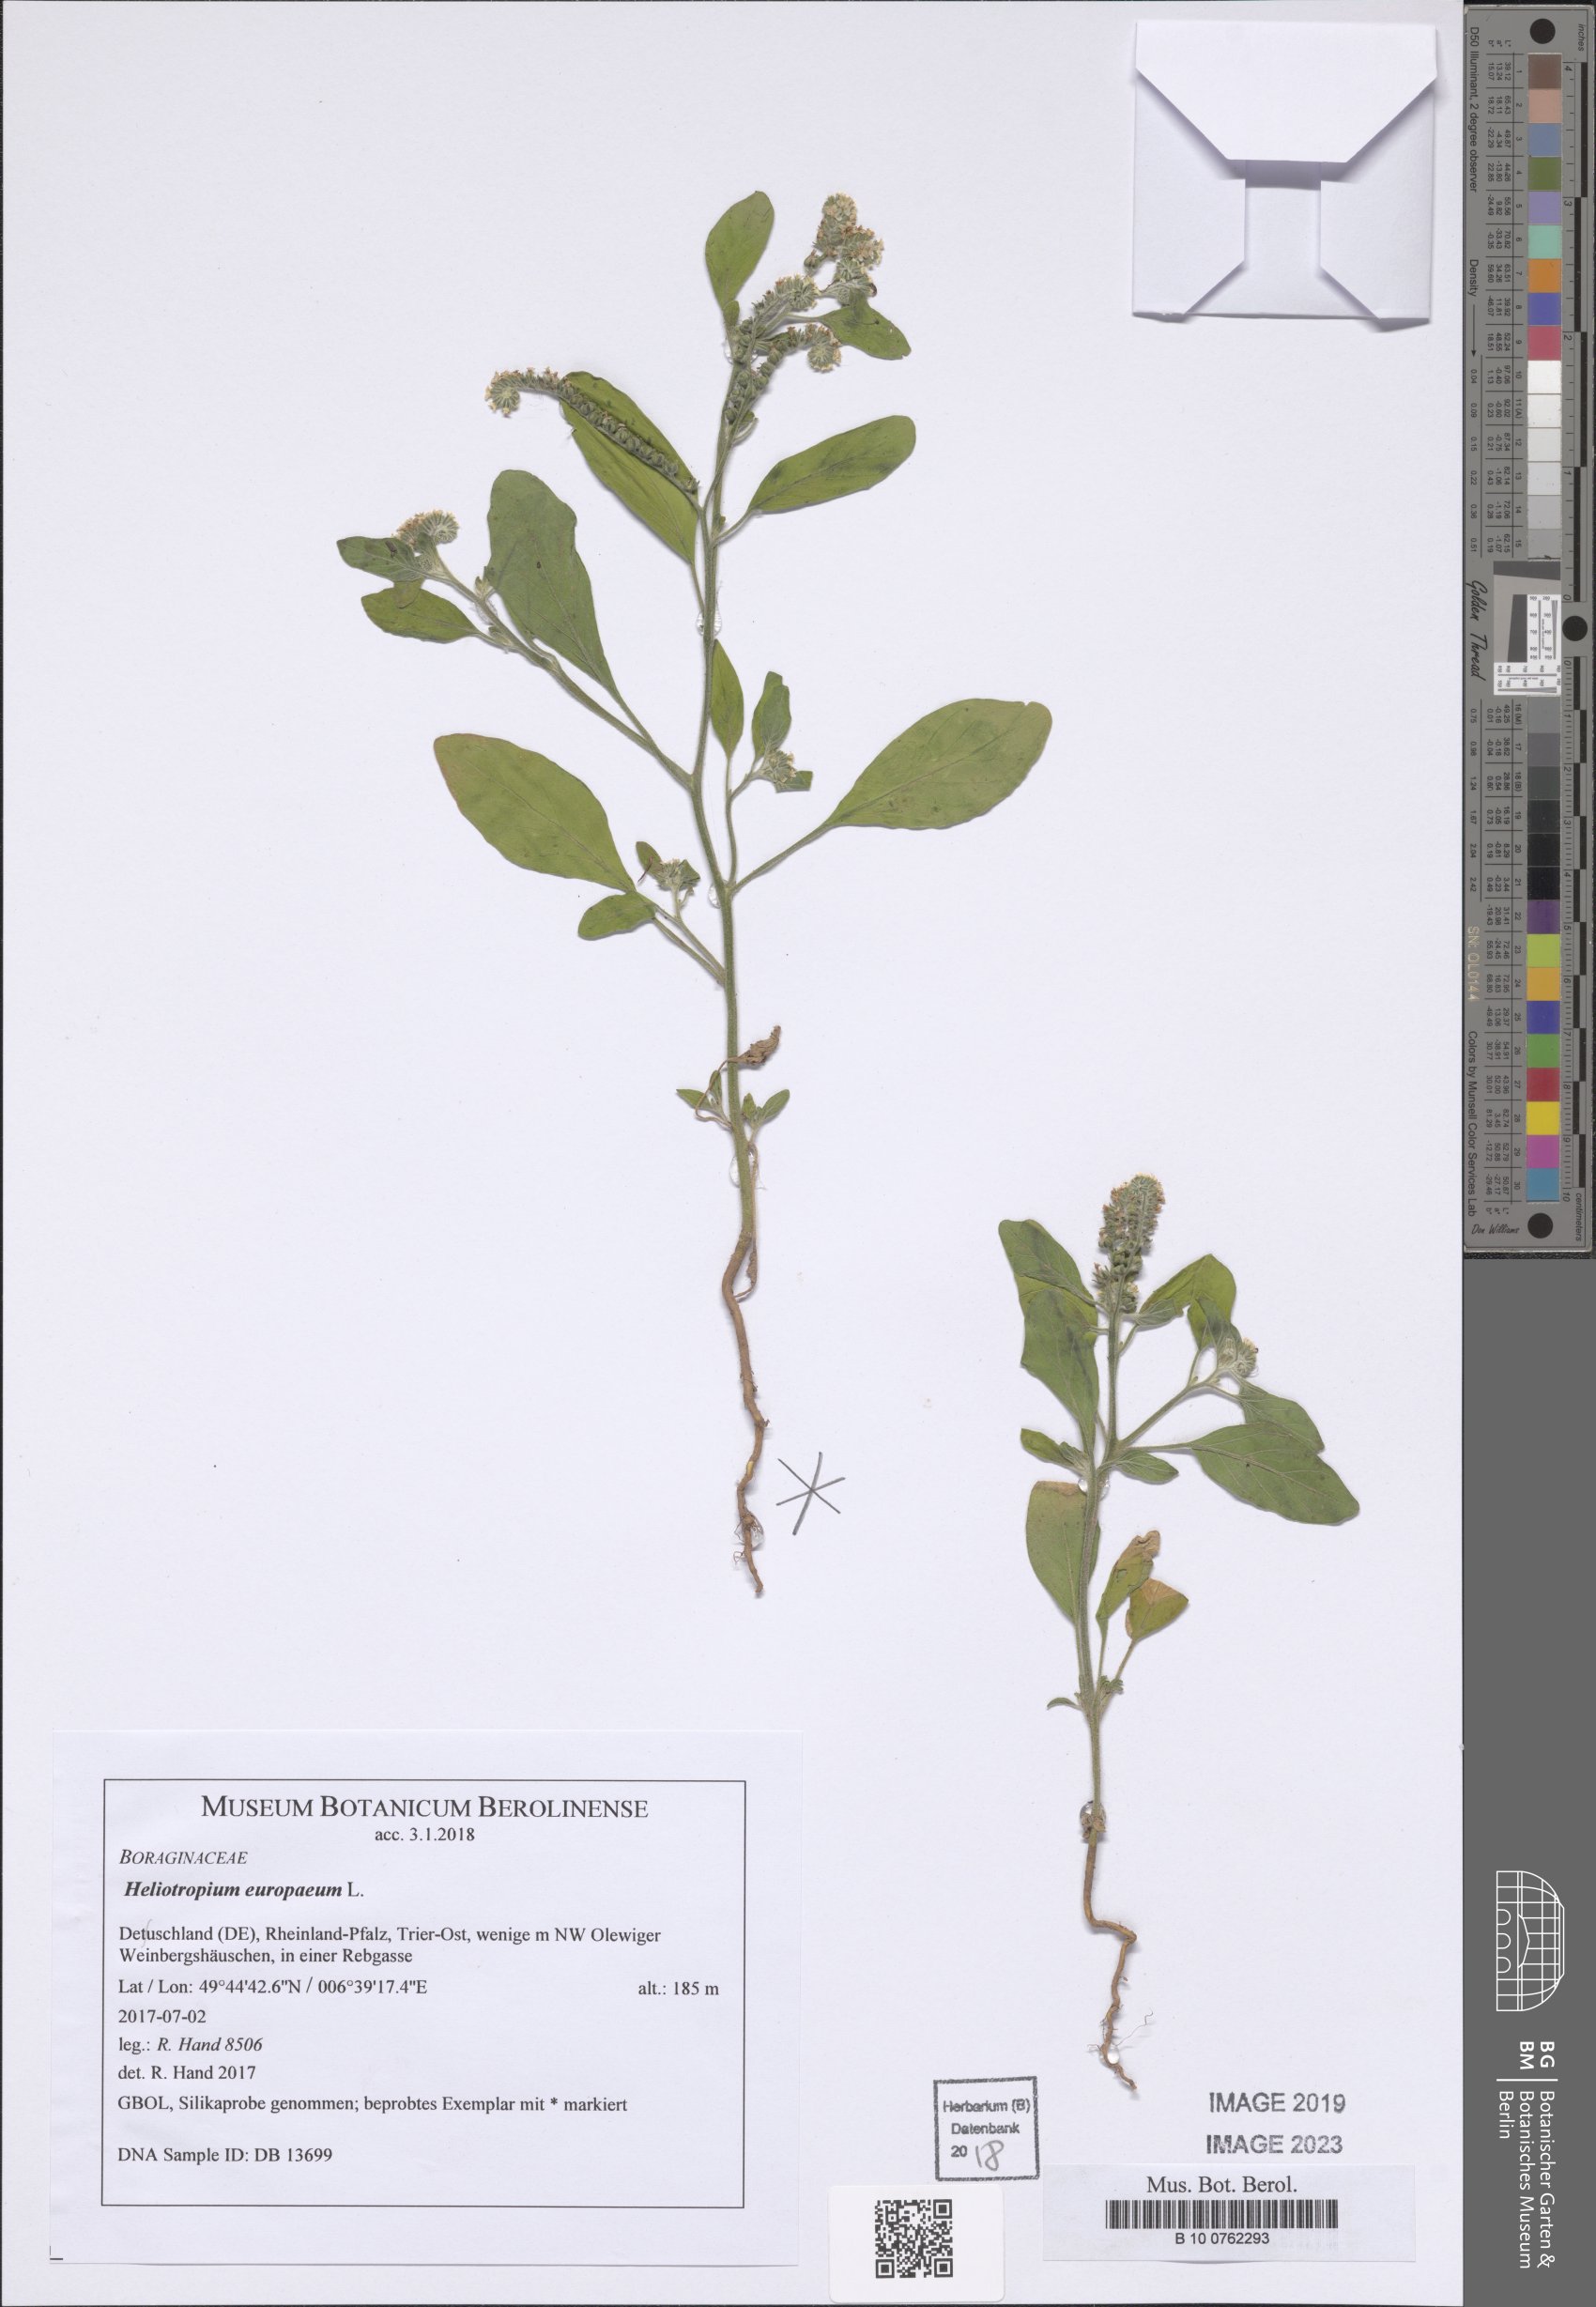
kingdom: Plantae
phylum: Tracheophyta
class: Magnoliopsida
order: Boraginales
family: Heliotropiaceae
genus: Heliotropium
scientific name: Heliotropium europaeum
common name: European heliotrope
